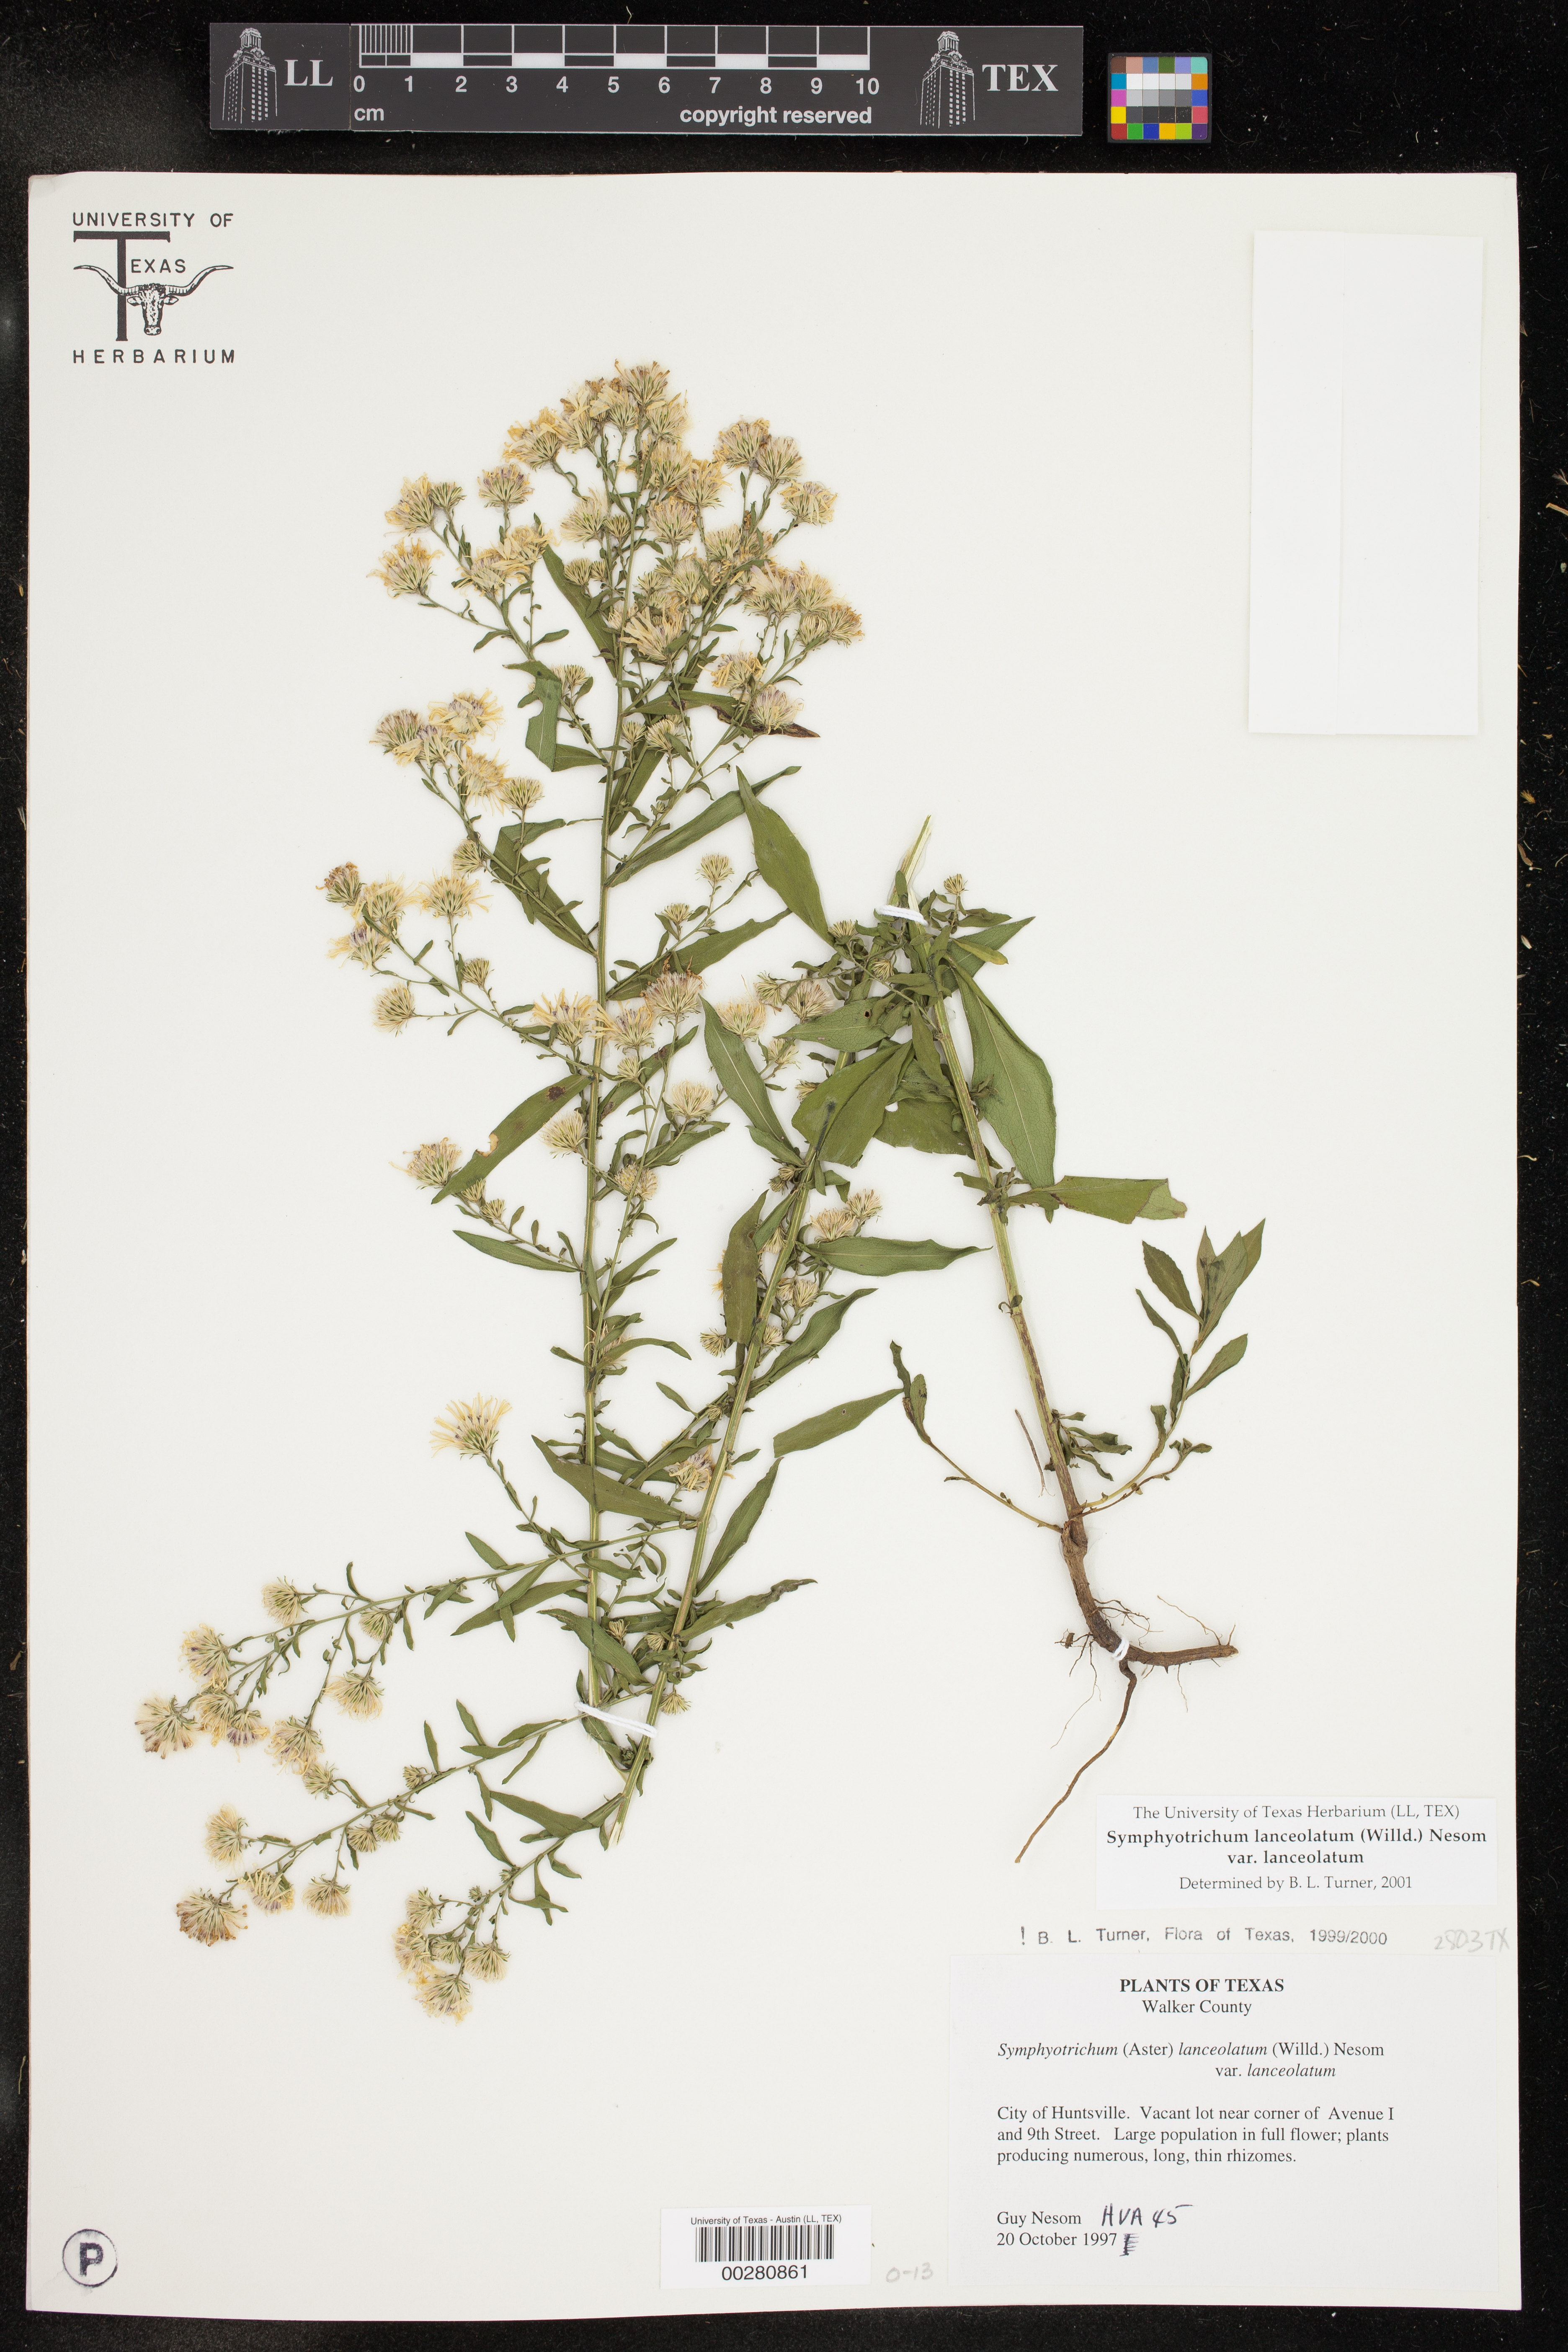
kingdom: Plantae
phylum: Tracheophyta
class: Magnoliopsida
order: Asterales
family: Asteraceae
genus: Symphyotrichum
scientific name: Symphyotrichum lanceolatum
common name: Panicled aster
